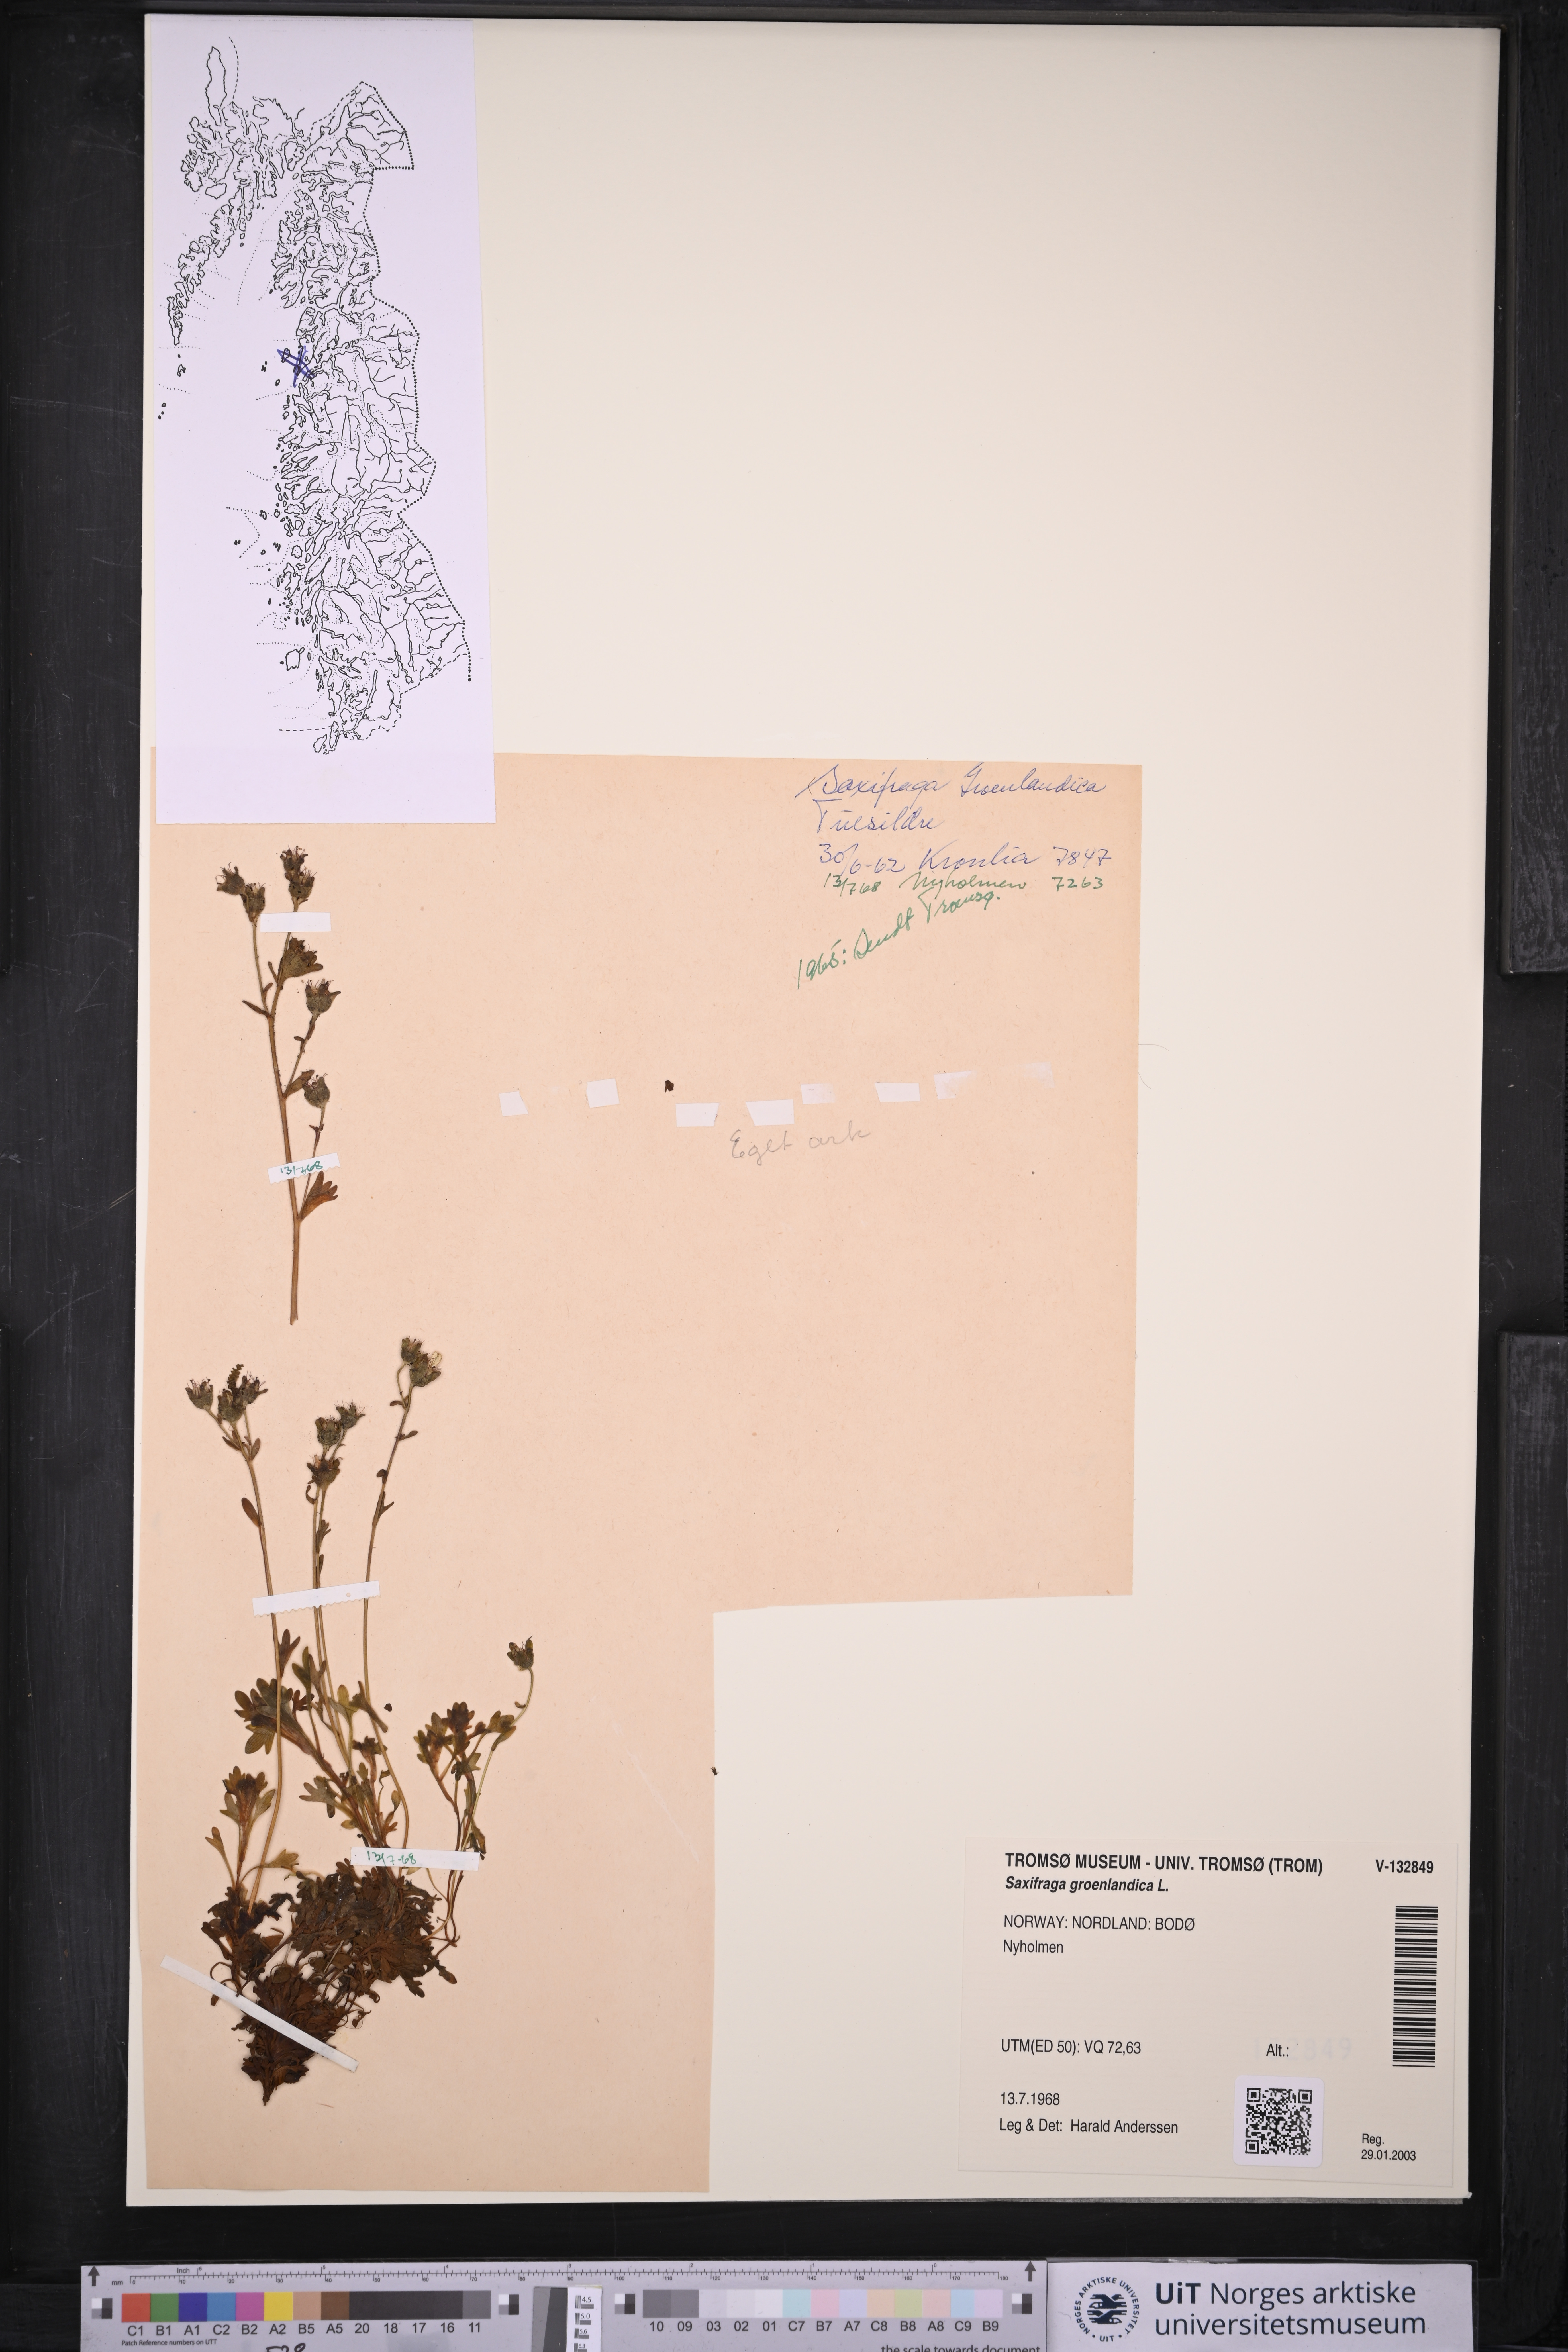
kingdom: Plantae
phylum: Tracheophyta
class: Magnoliopsida
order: Saxifragales
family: Saxifragaceae
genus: Saxifraga
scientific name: Saxifraga cespitosa
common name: Tufted saxifrage
